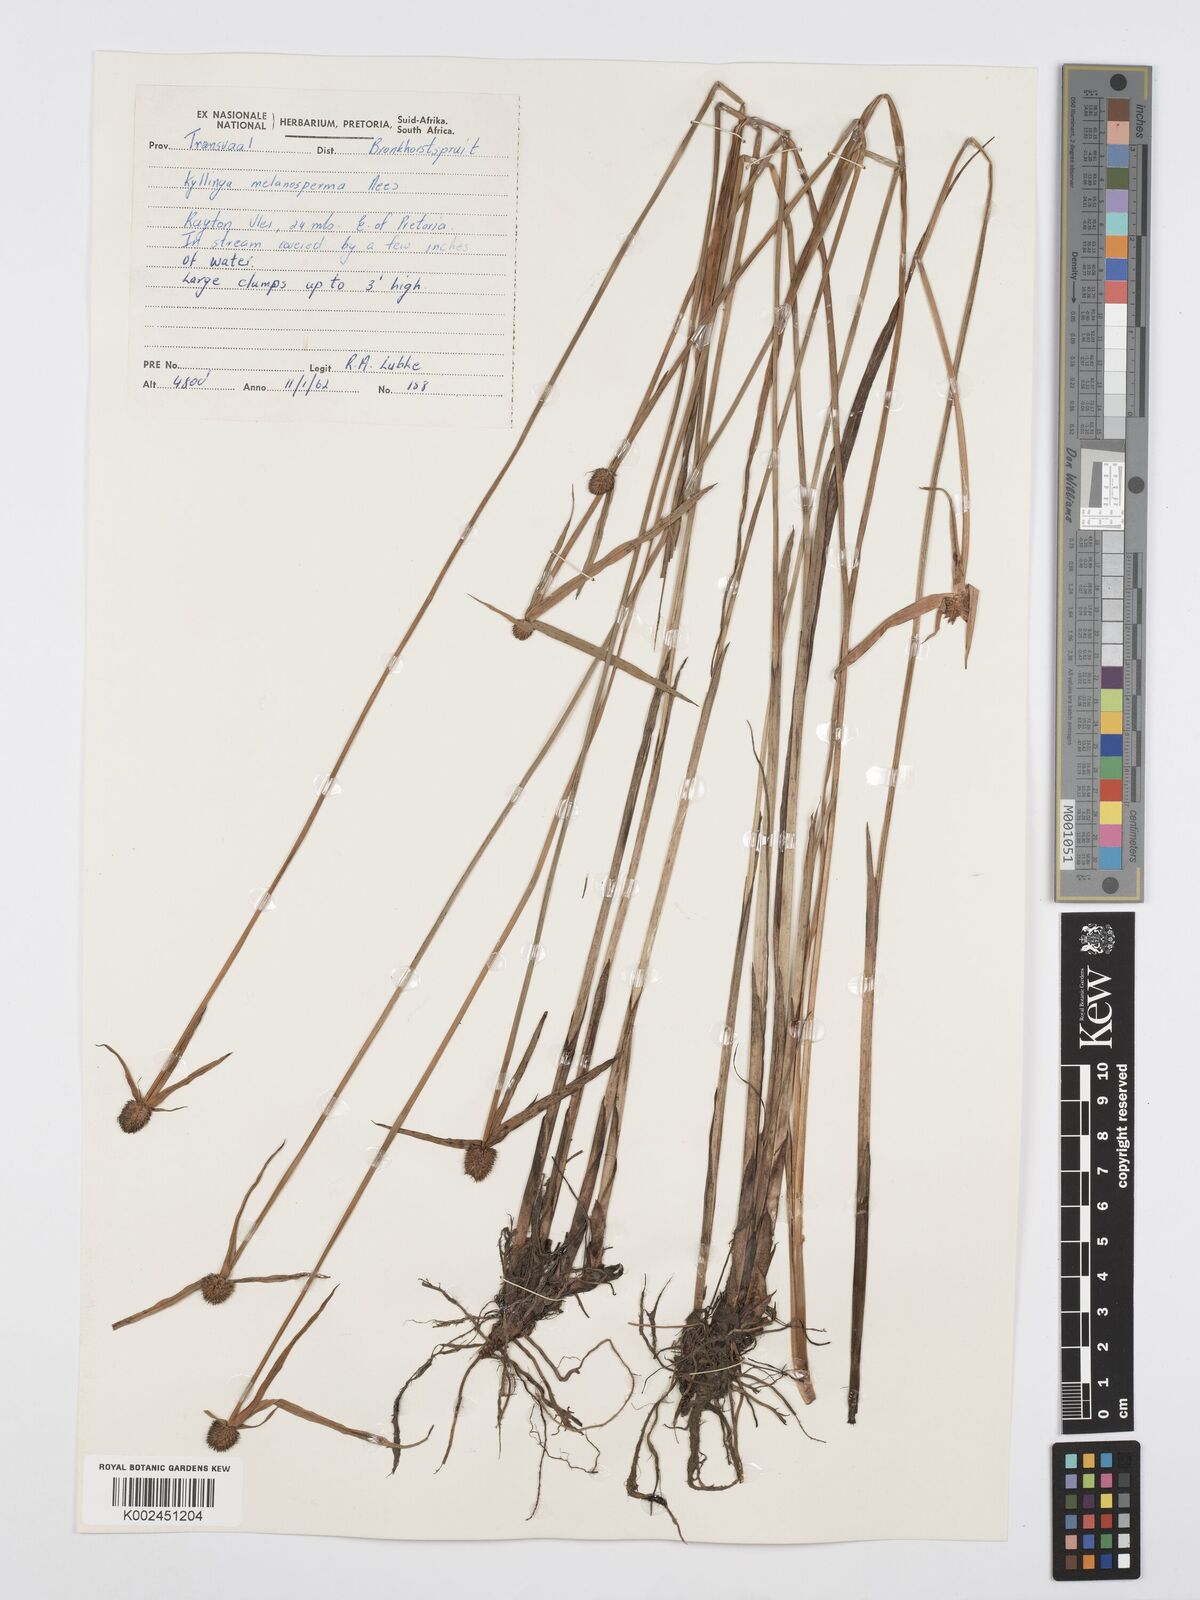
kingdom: Plantae
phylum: Tracheophyta
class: Liliopsida
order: Poales
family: Cyperaceae
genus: Cyperus
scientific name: Cyperus melanospermus
